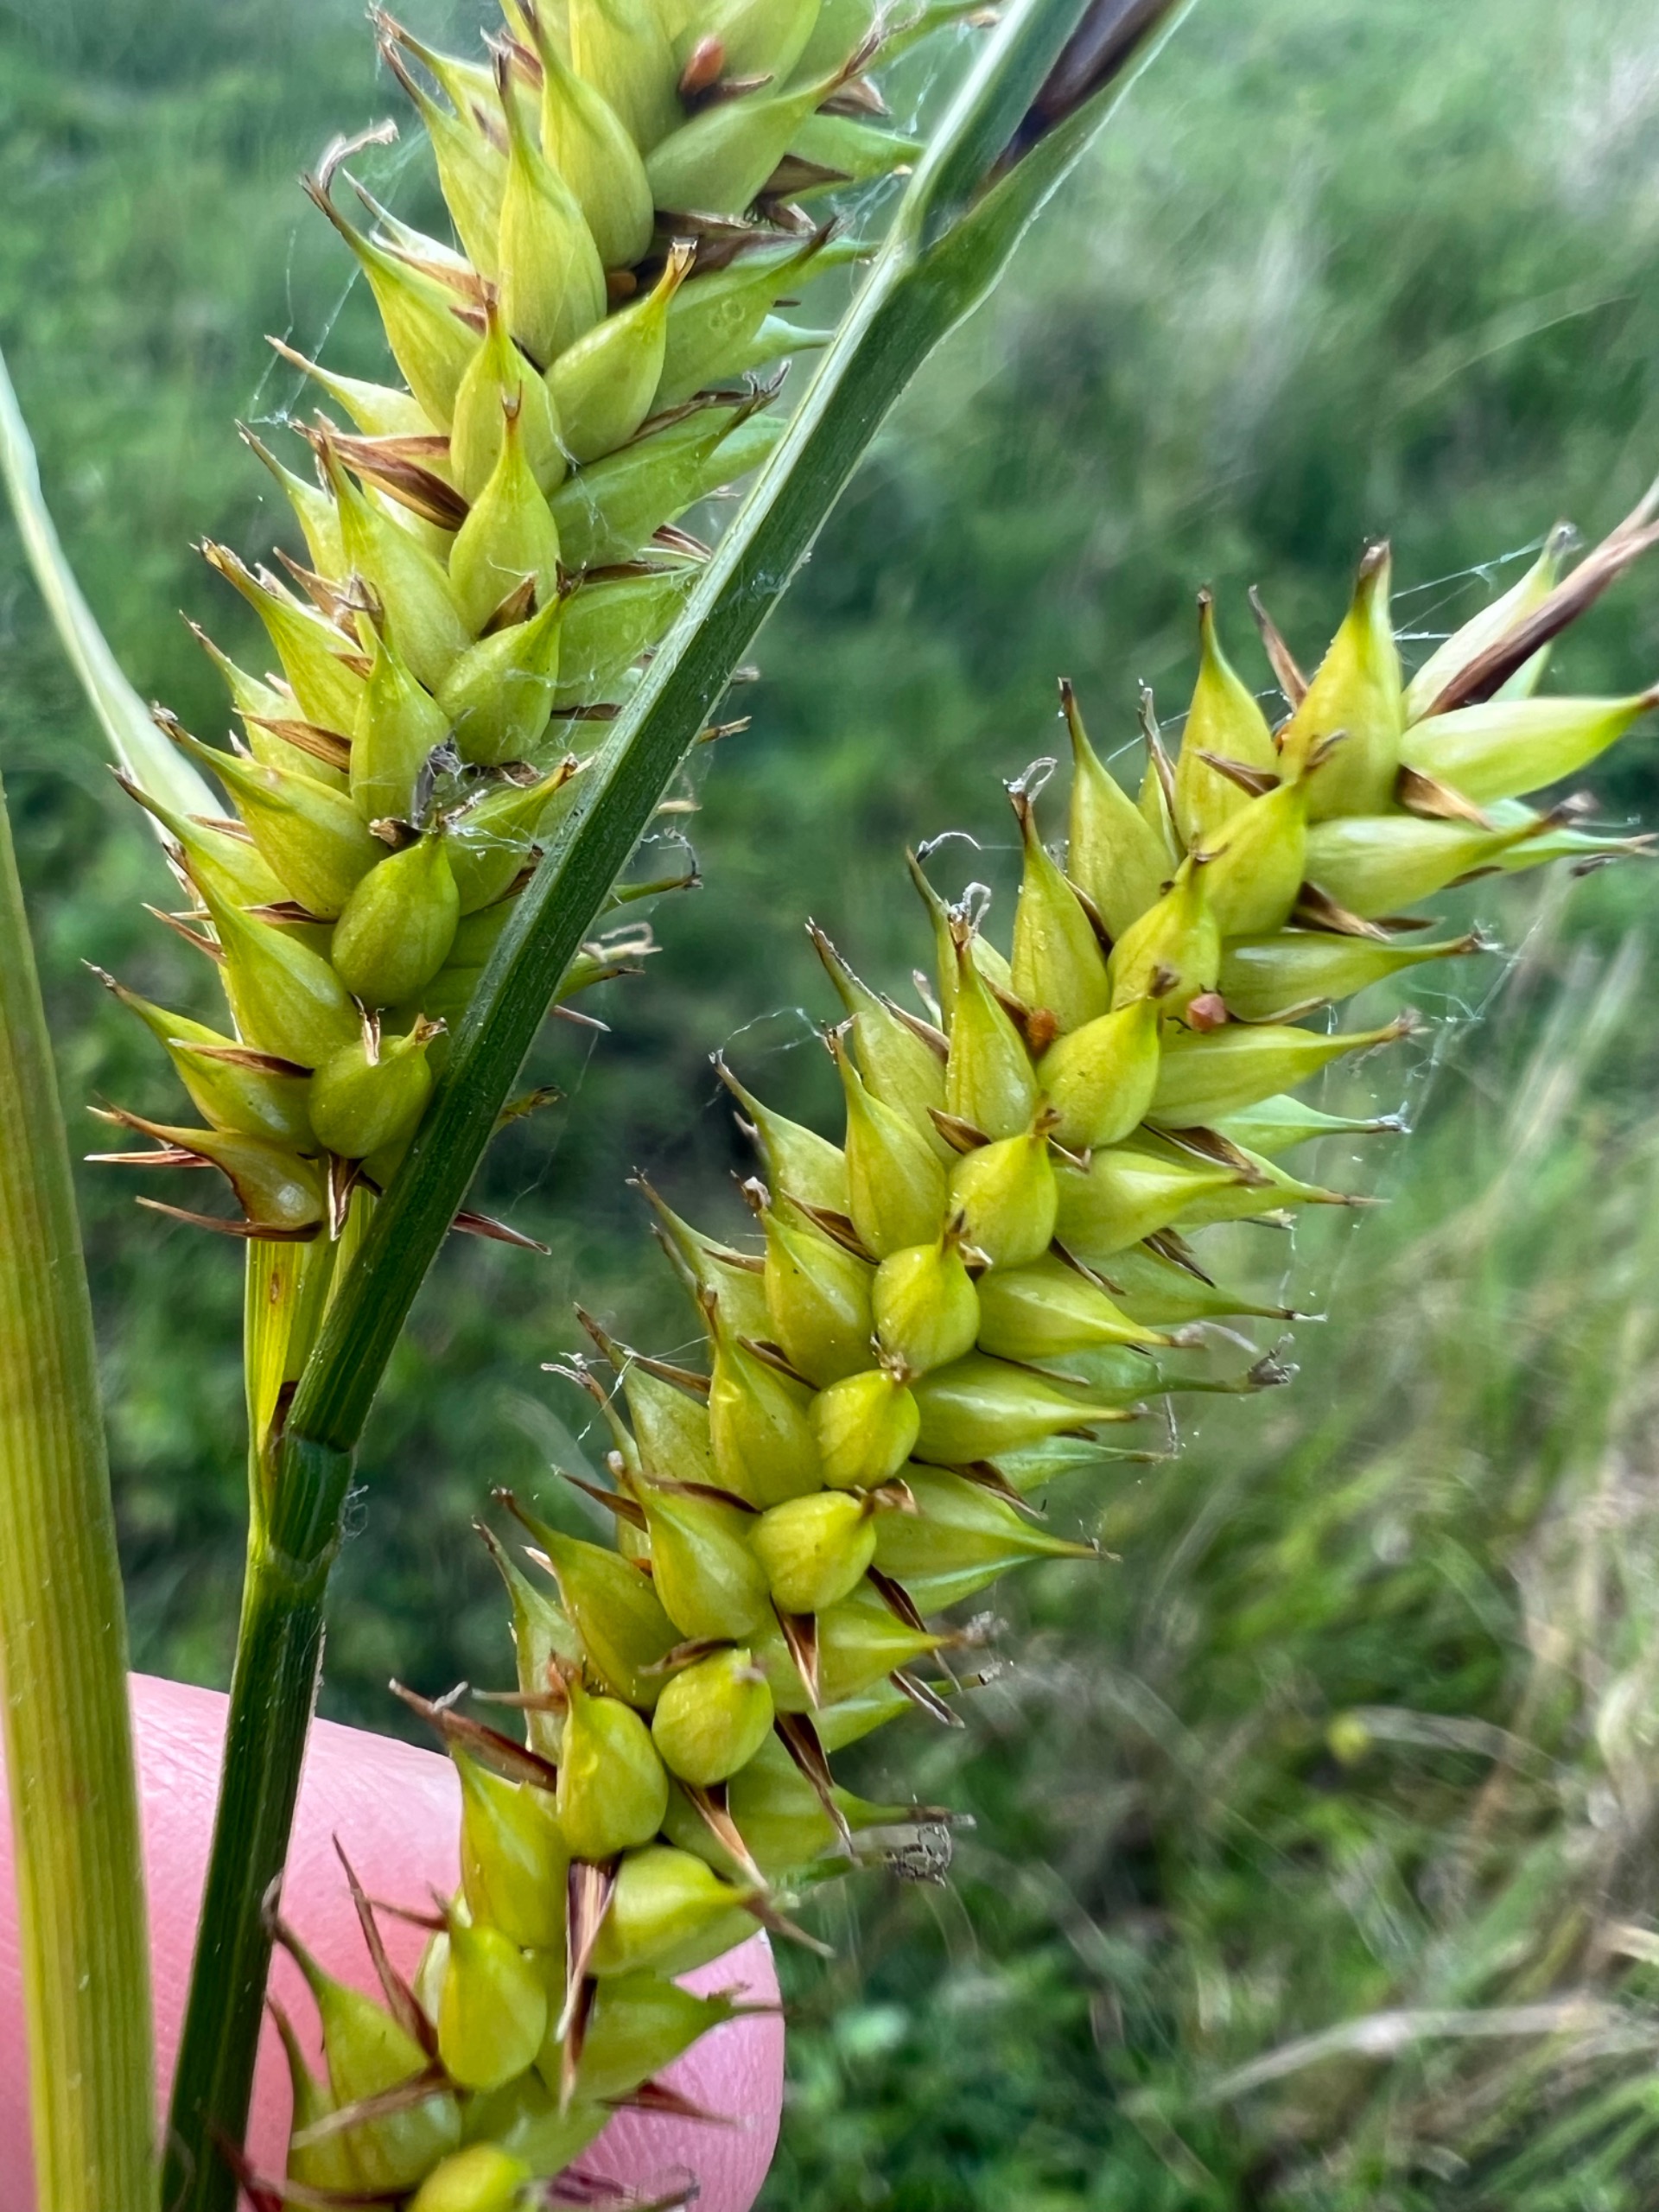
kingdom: Plantae
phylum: Tracheophyta
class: Liliopsida
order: Poales
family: Cyperaceae
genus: Carex
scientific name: Carex vesicaria
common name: Blære-star
